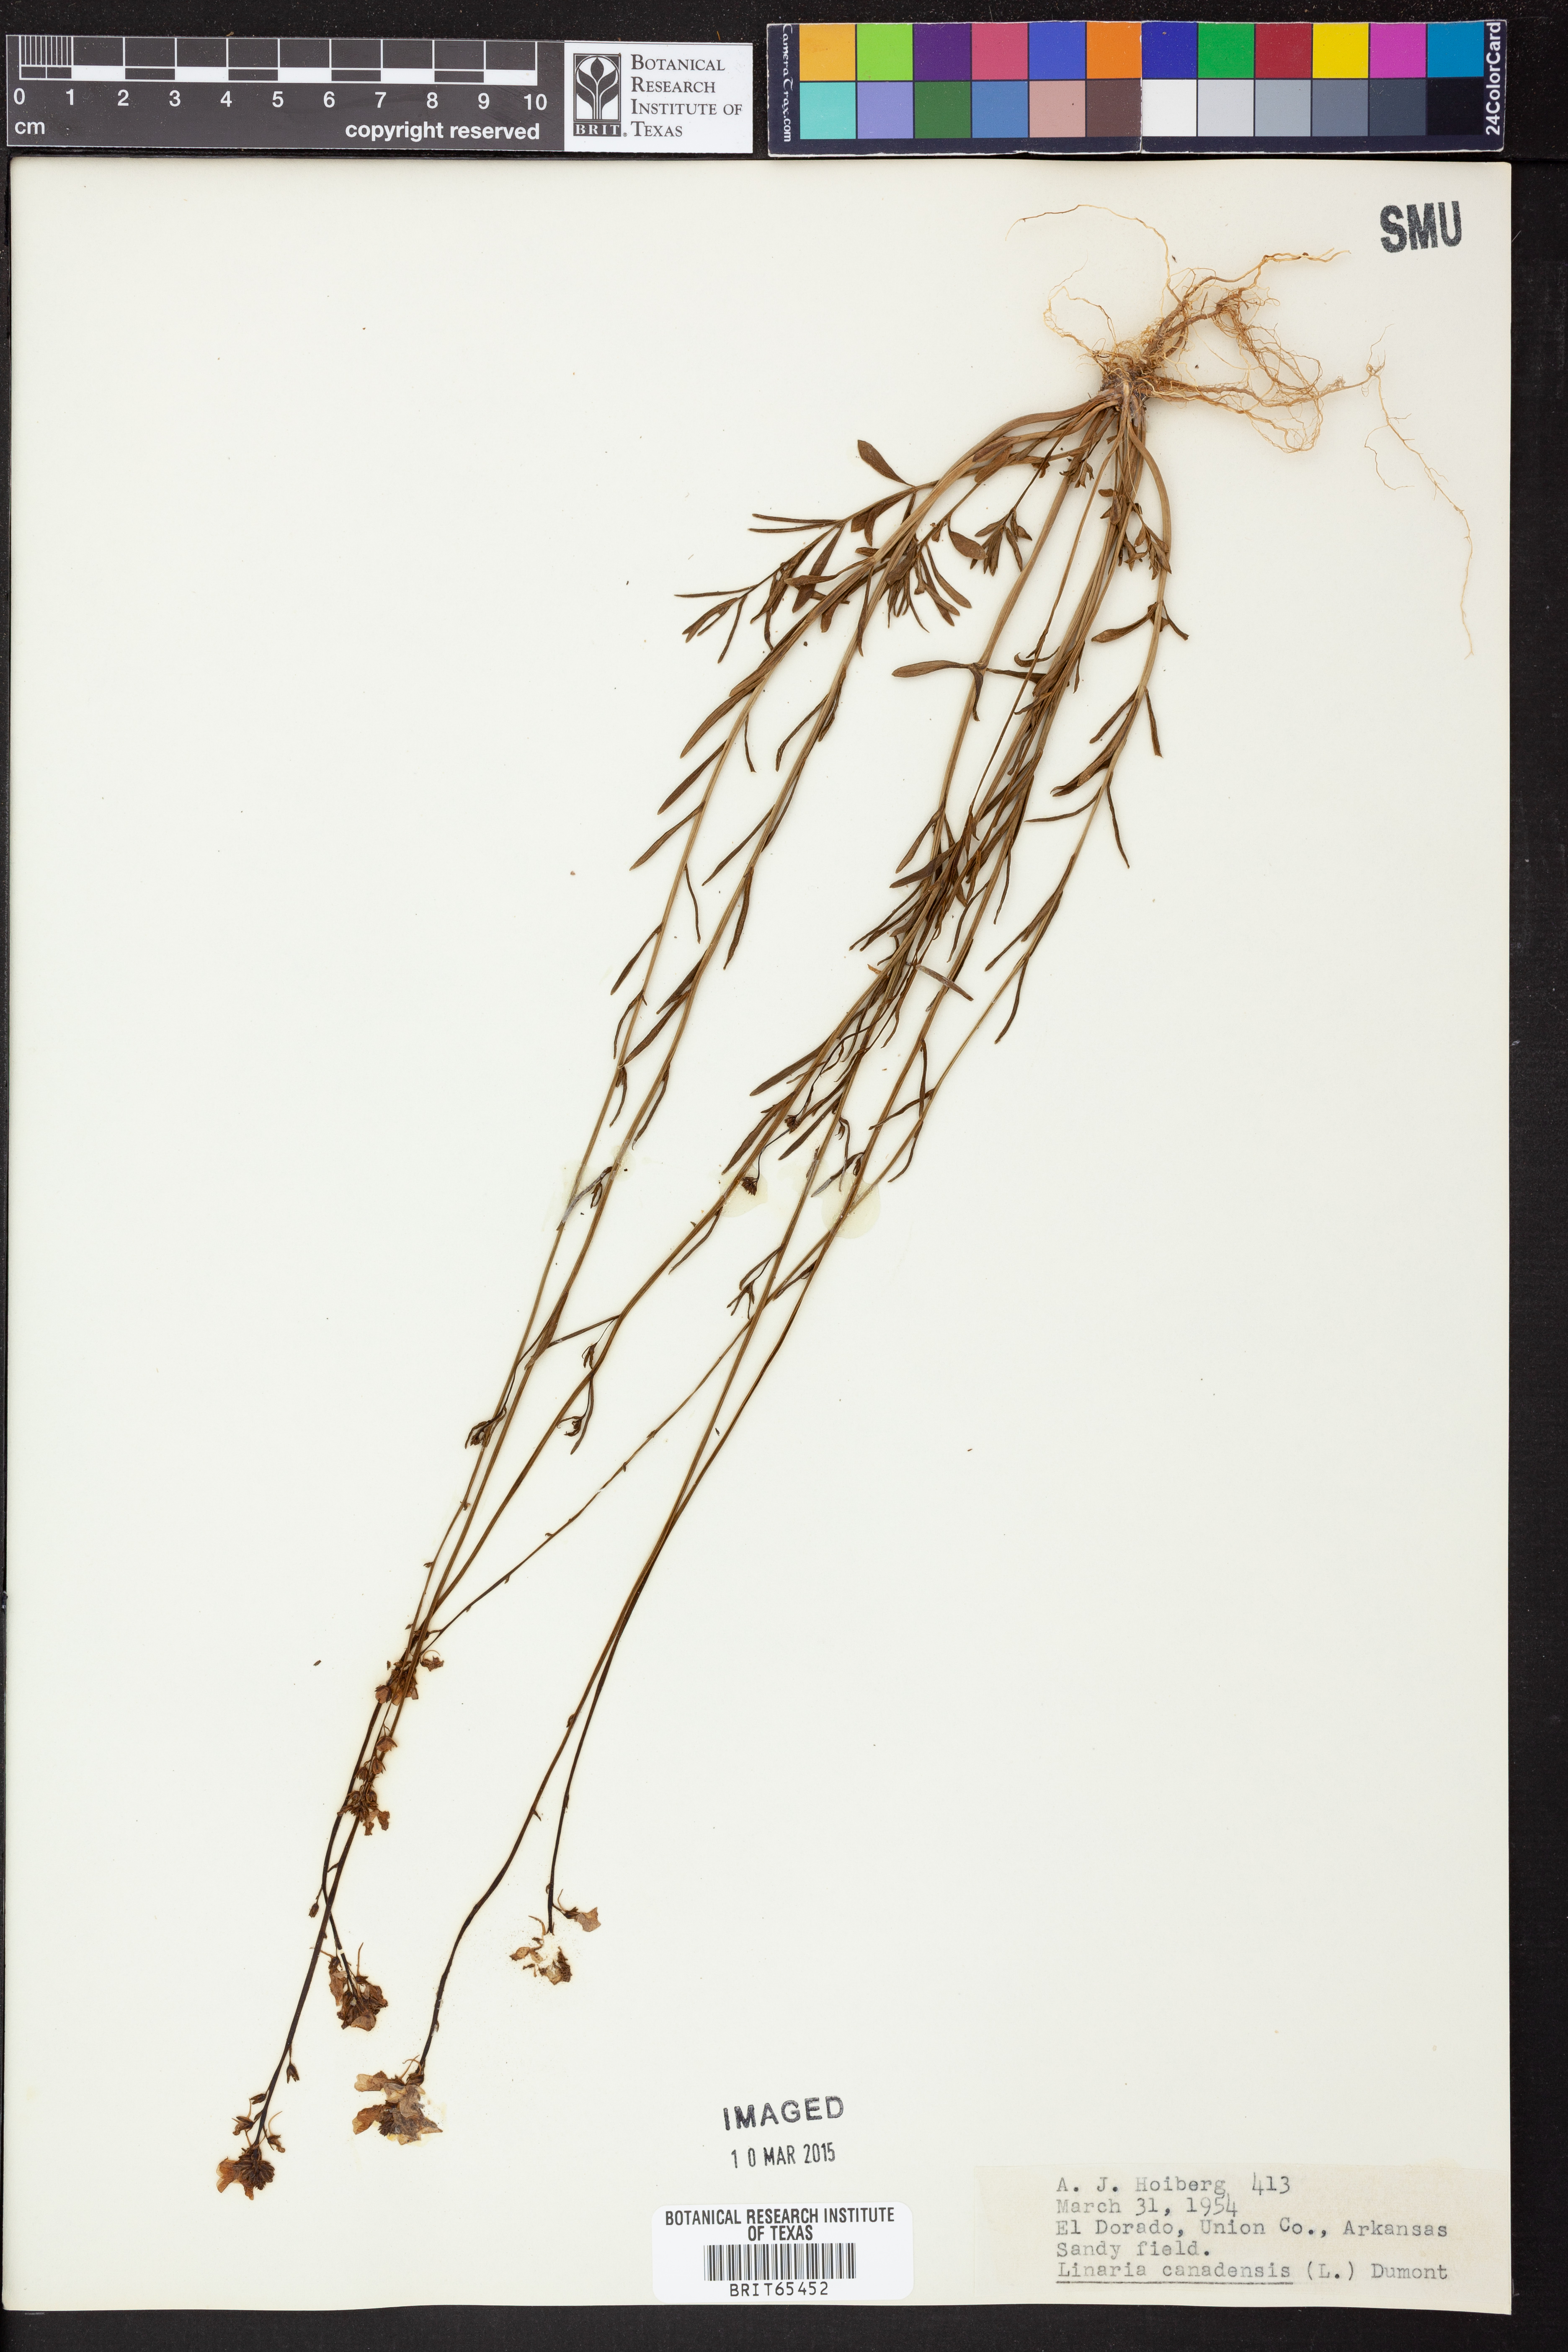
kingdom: Plantae
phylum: Tracheophyta
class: Magnoliopsida
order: Lamiales
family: Plantaginaceae
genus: Nuttallanthus
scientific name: Nuttallanthus canadensis
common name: Blue toadflax
